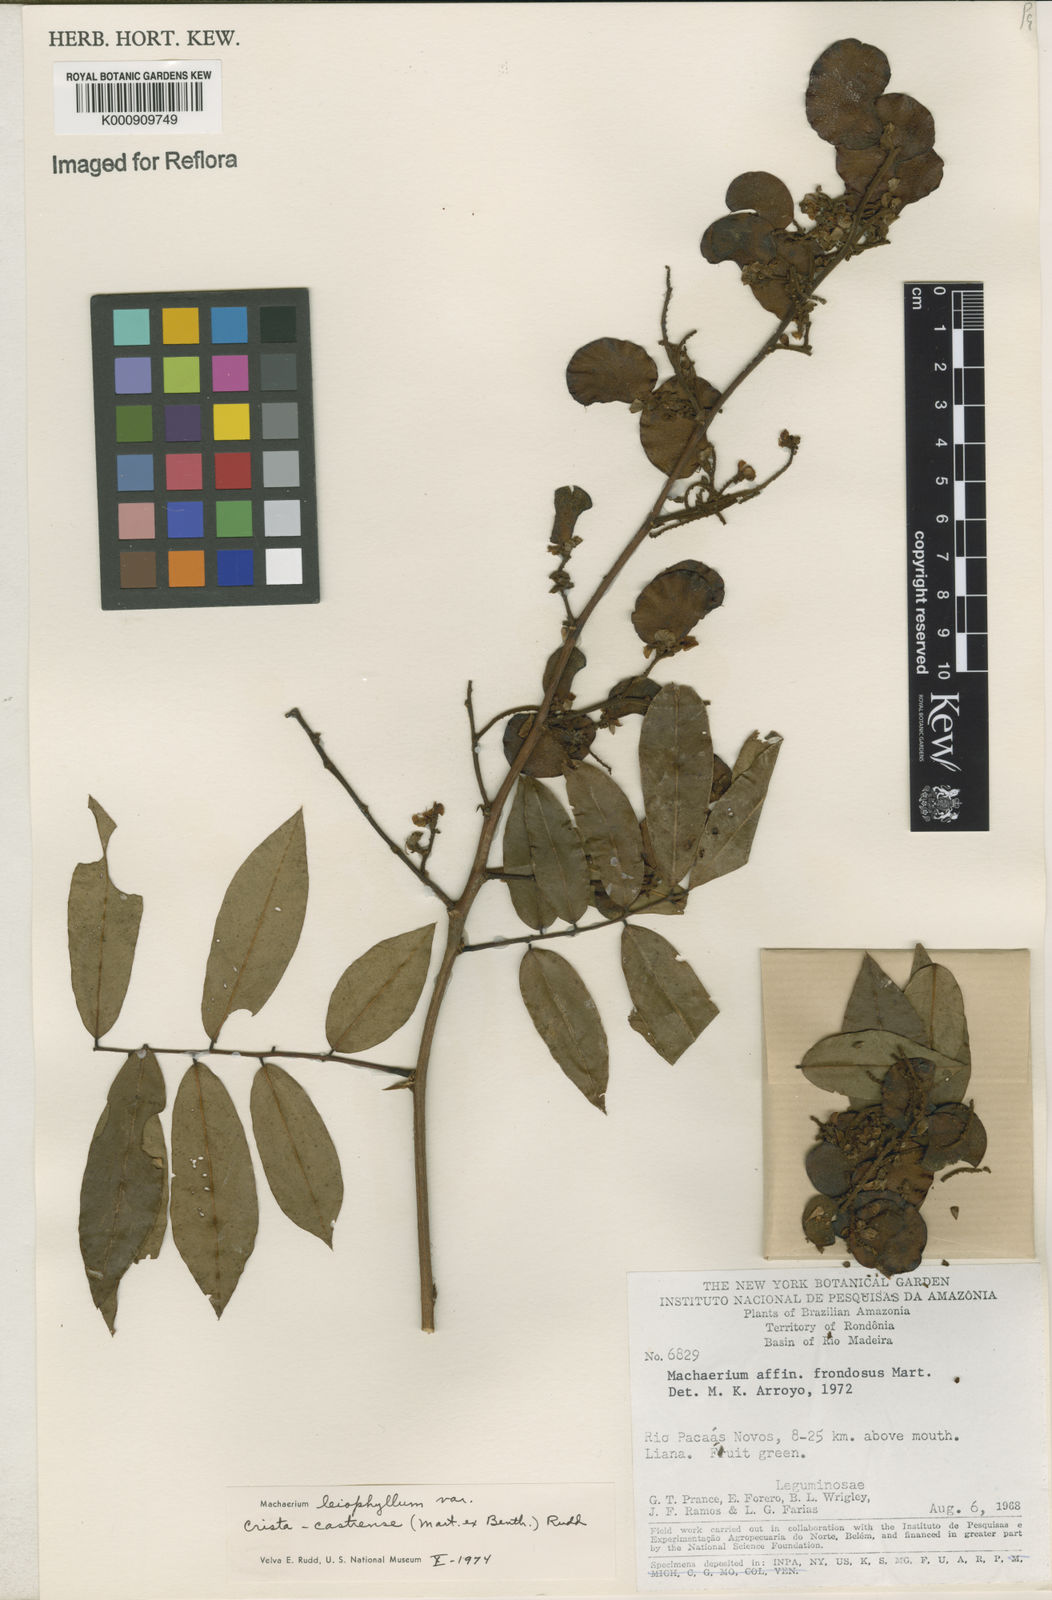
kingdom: Plantae
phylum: Tracheophyta
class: Magnoliopsida
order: Fabales
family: Fabaceae
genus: Machaerium
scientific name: Machaerium leiophyllum
